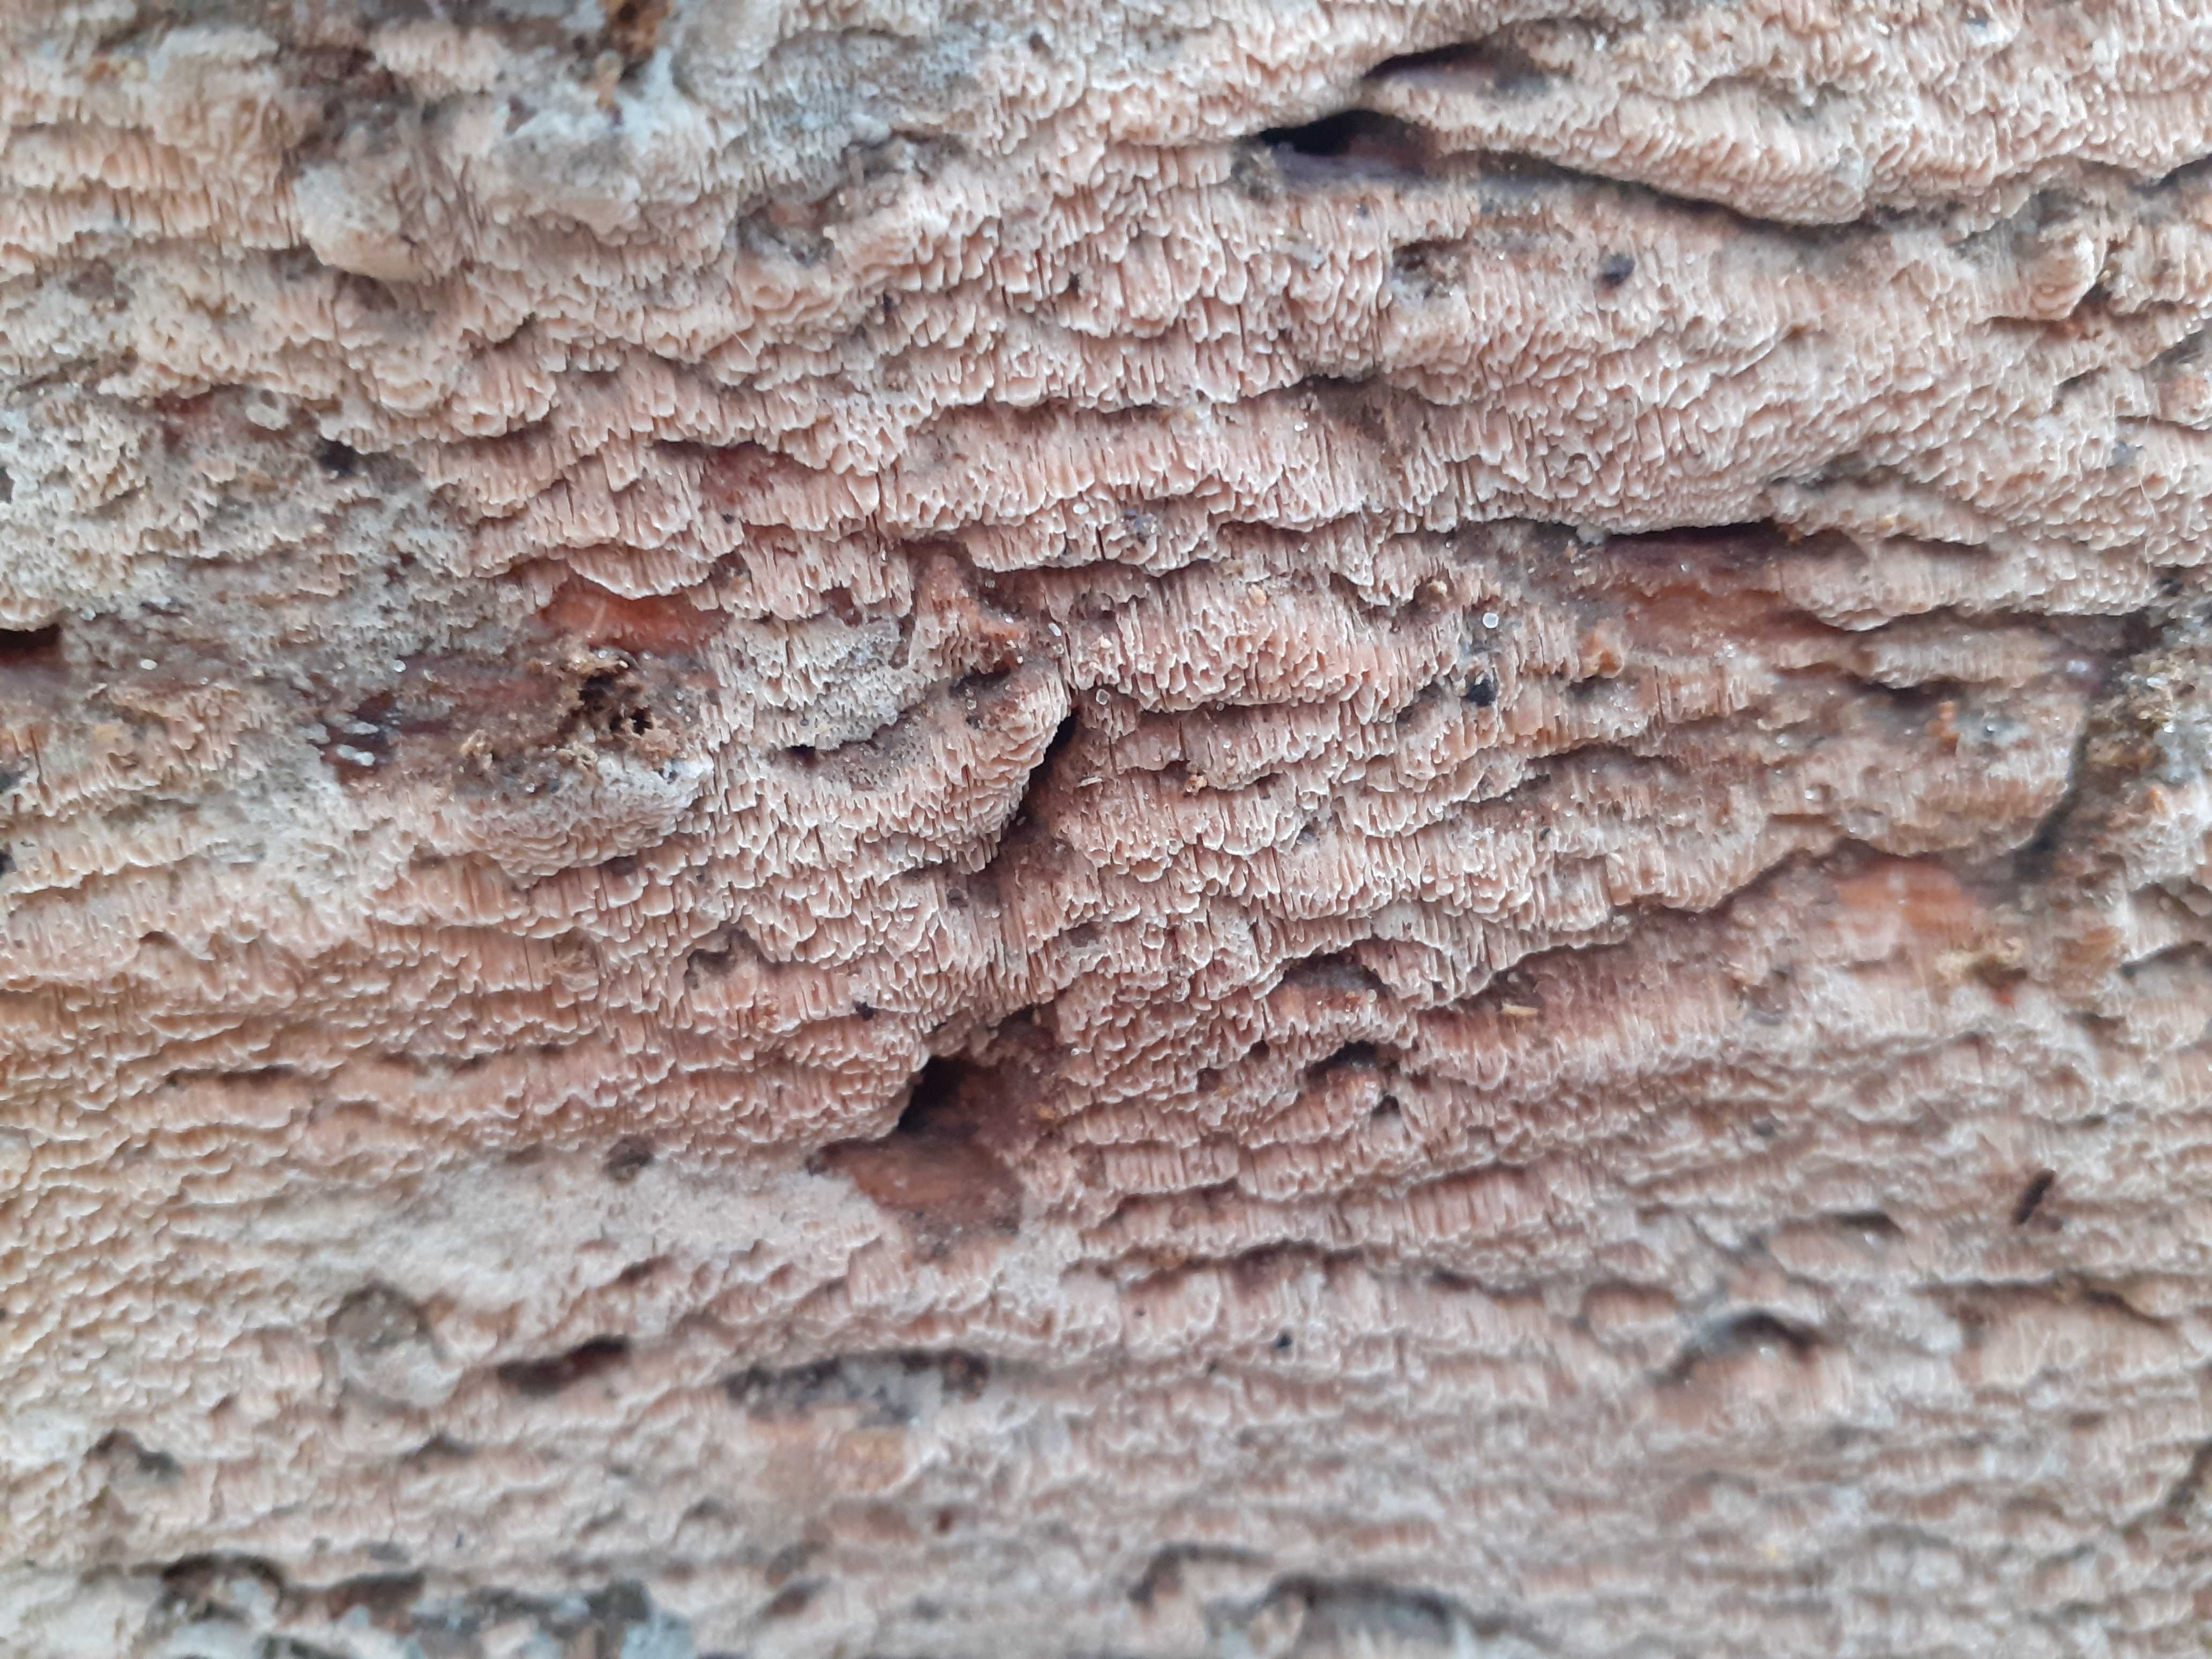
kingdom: Fungi
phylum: Basidiomycota
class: Agaricomycetes
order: Polyporales
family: Meruliaceae
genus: Mycoacia
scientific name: Mycoacia gilvescens
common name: rosa pastelporesvamp
